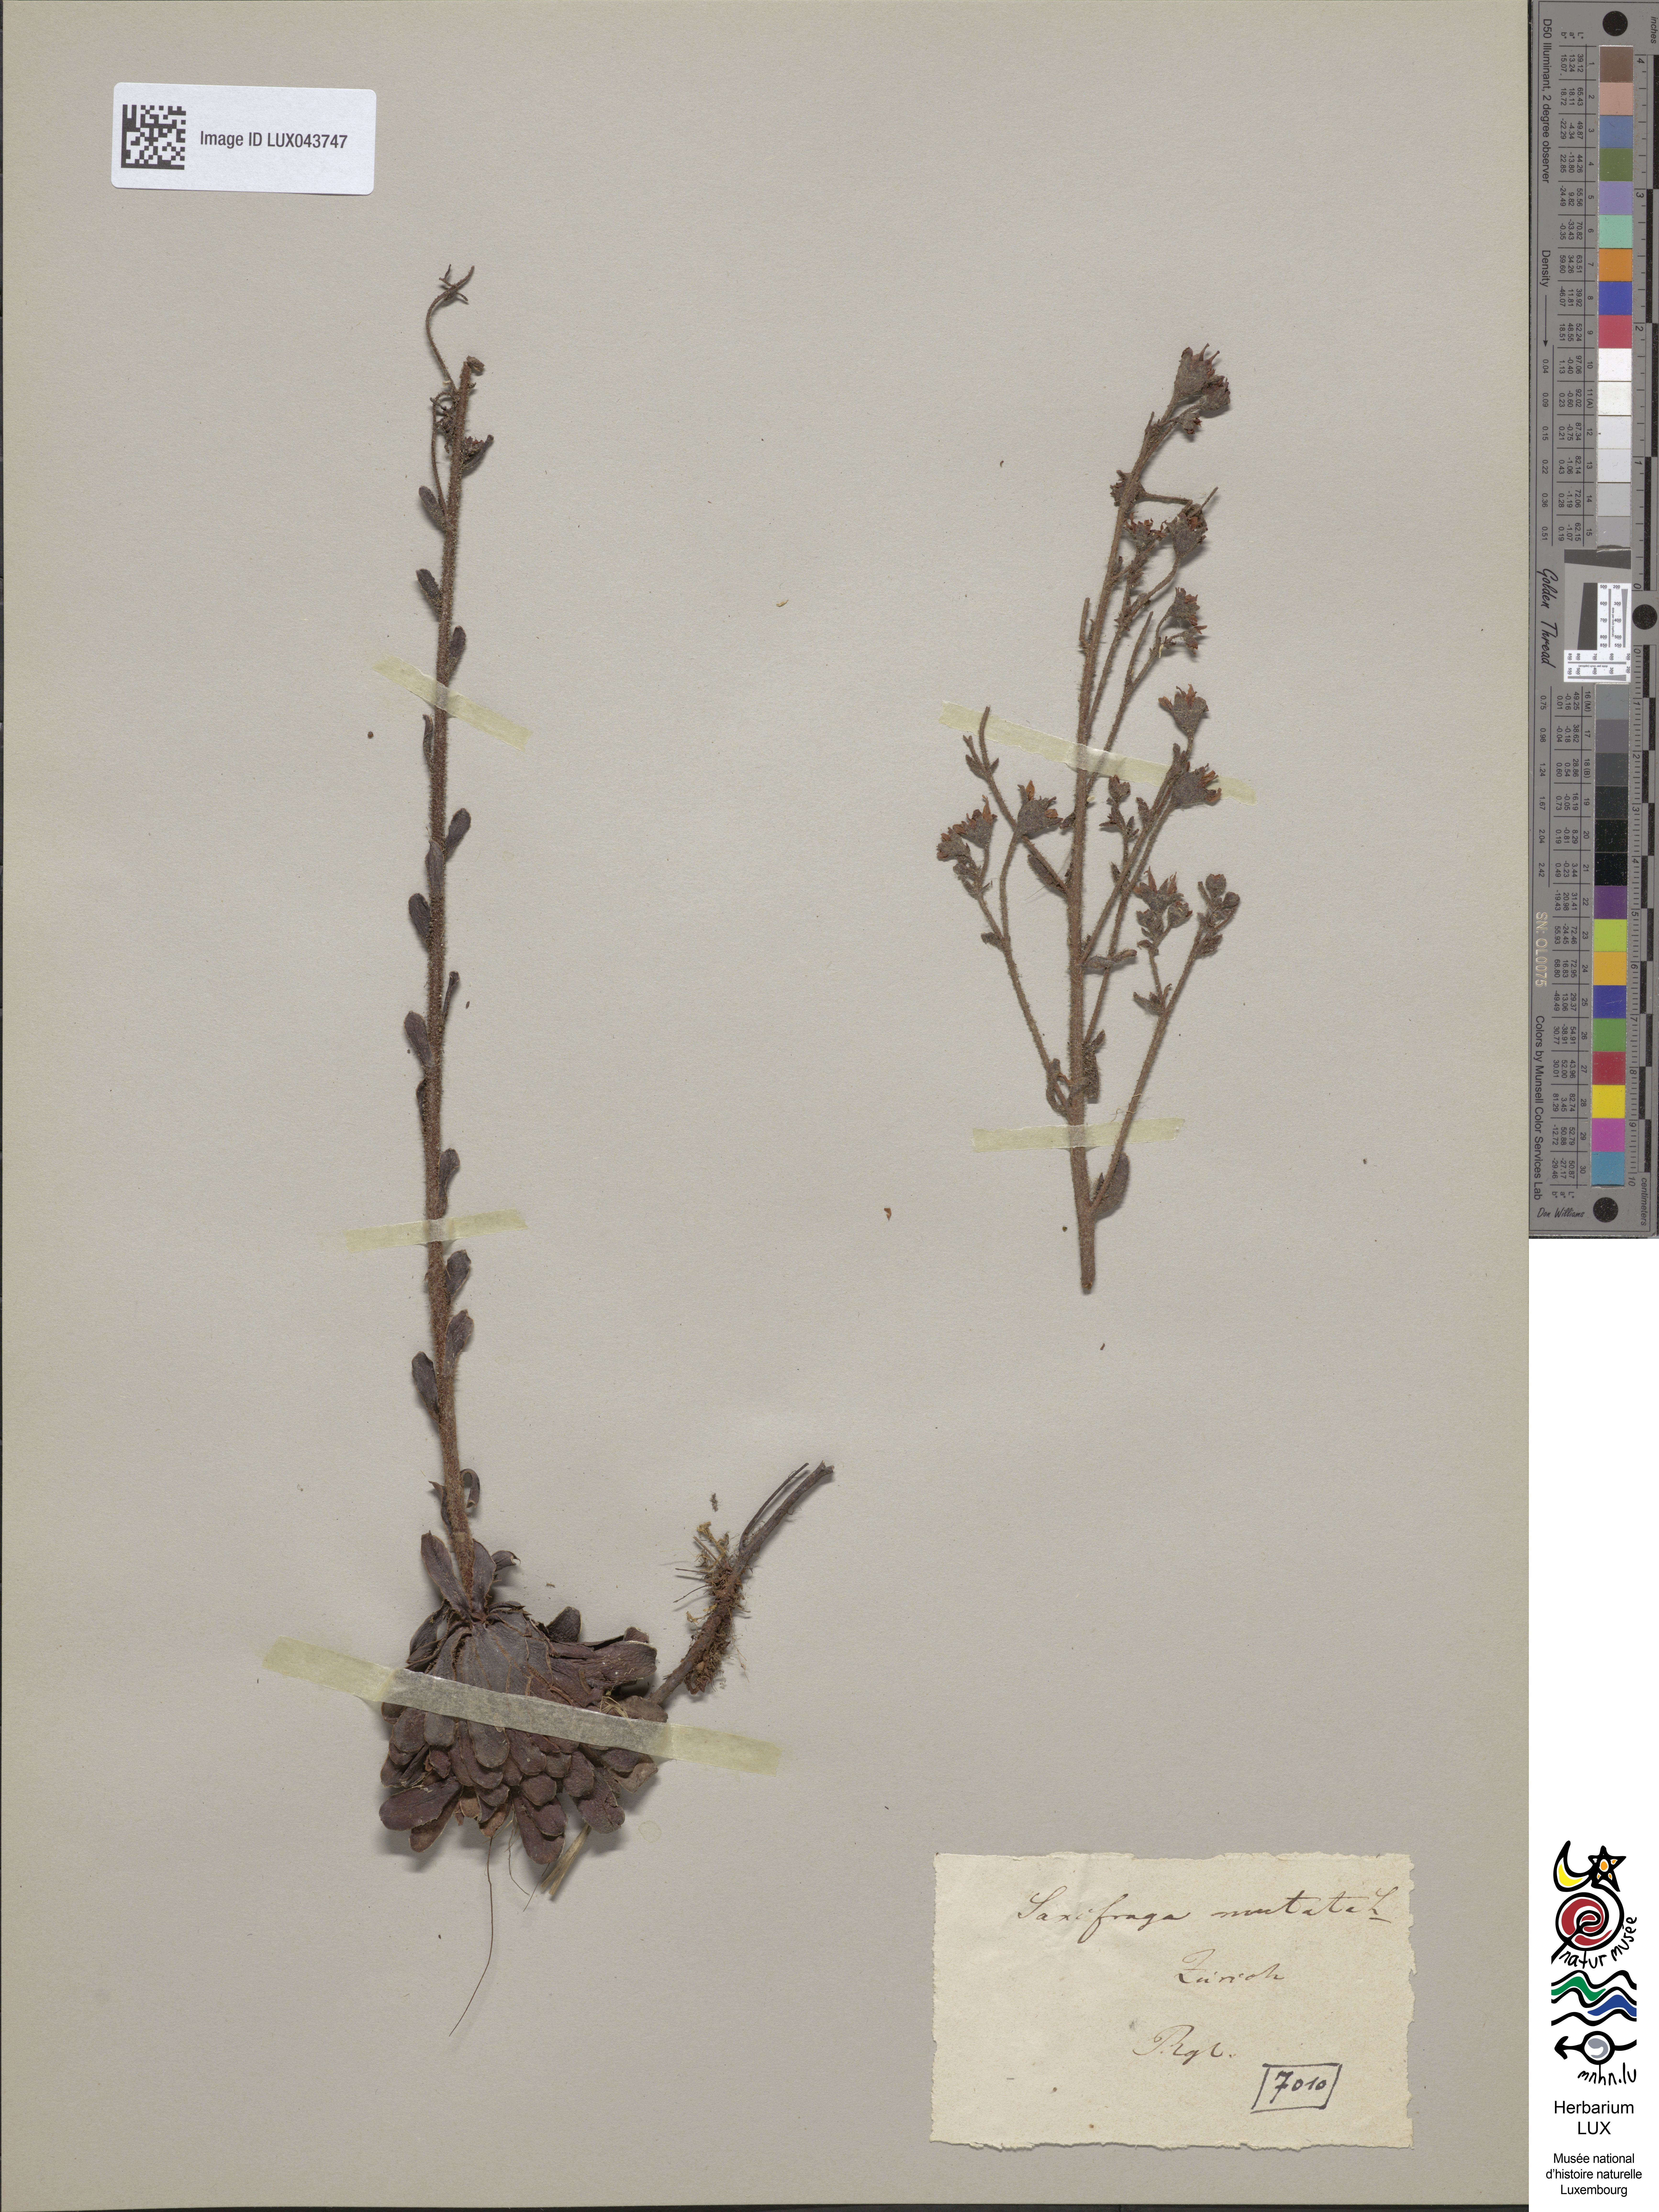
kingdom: Plantae
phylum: Tracheophyta
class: Magnoliopsida
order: Saxifragales
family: Saxifragaceae
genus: Saxifraga
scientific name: Saxifraga mutata
